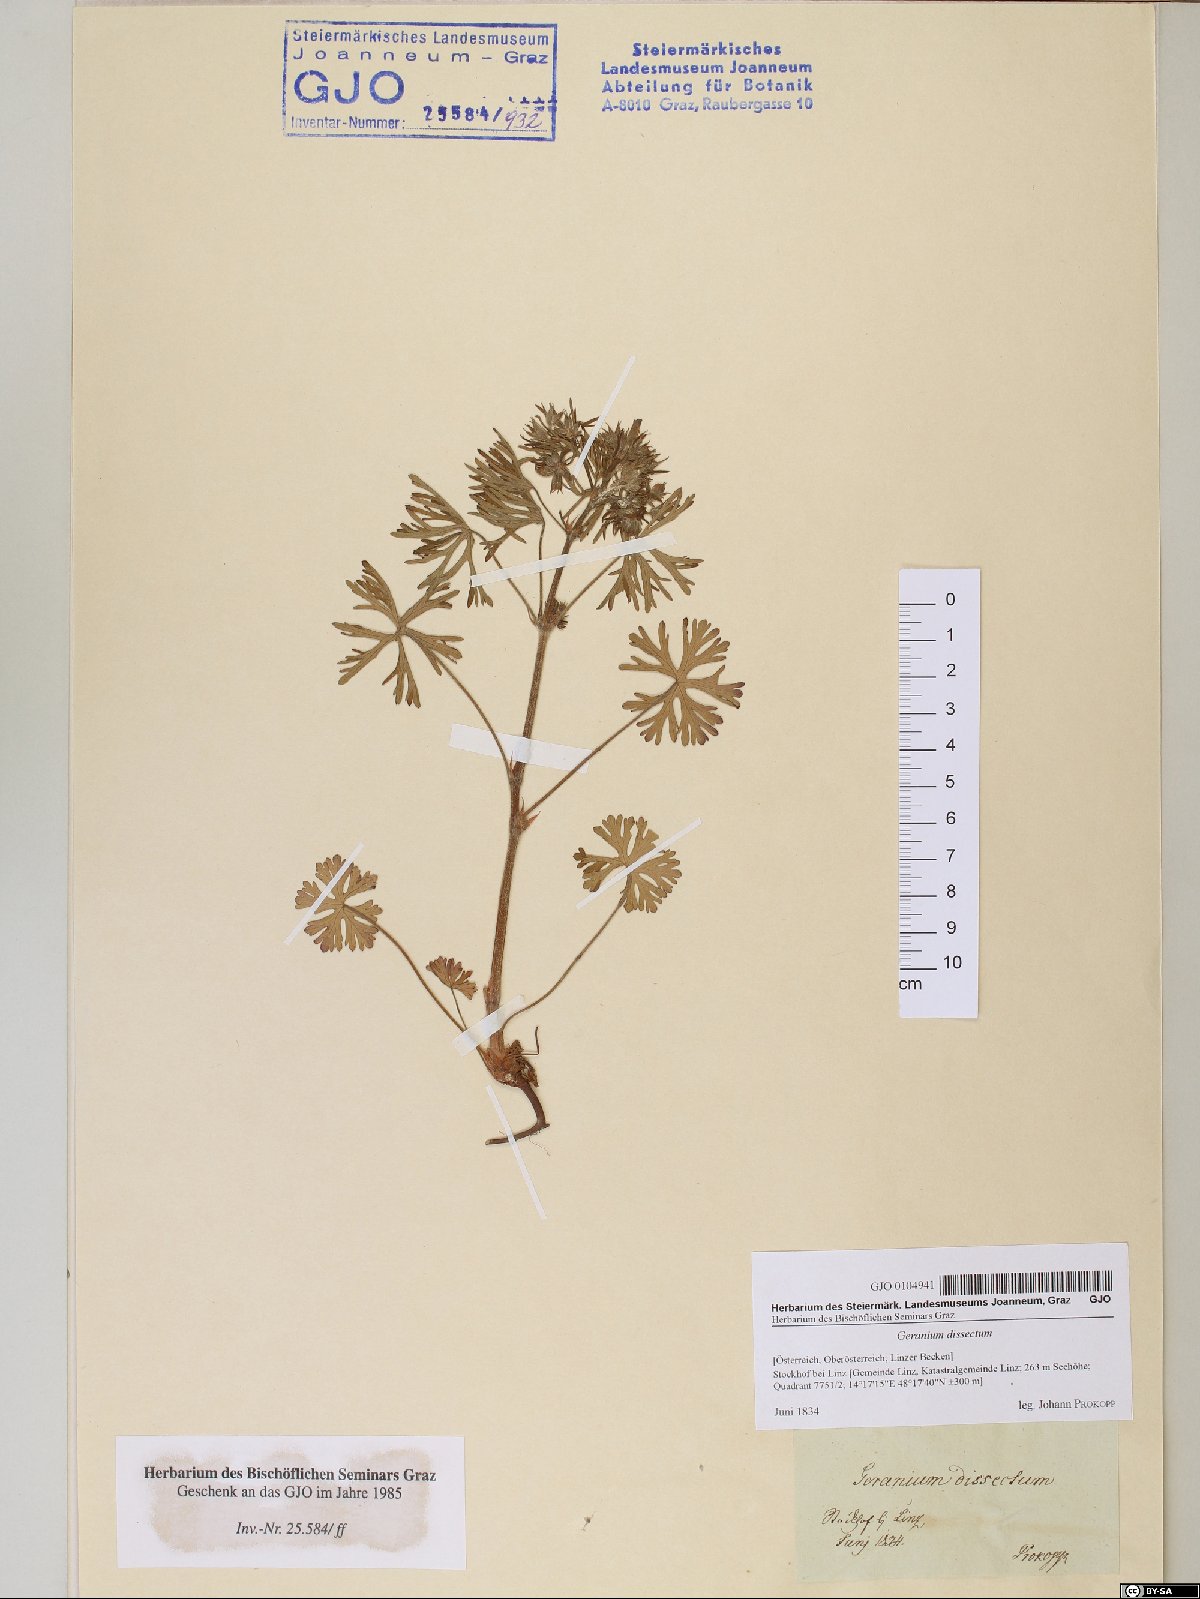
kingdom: Plantae
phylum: Tracheophyta
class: Magnoliopsida
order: Geraniales
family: Geraniaceae
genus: Geranium
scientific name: Geranium dissectum
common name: Cut-leaved crane's-bill
